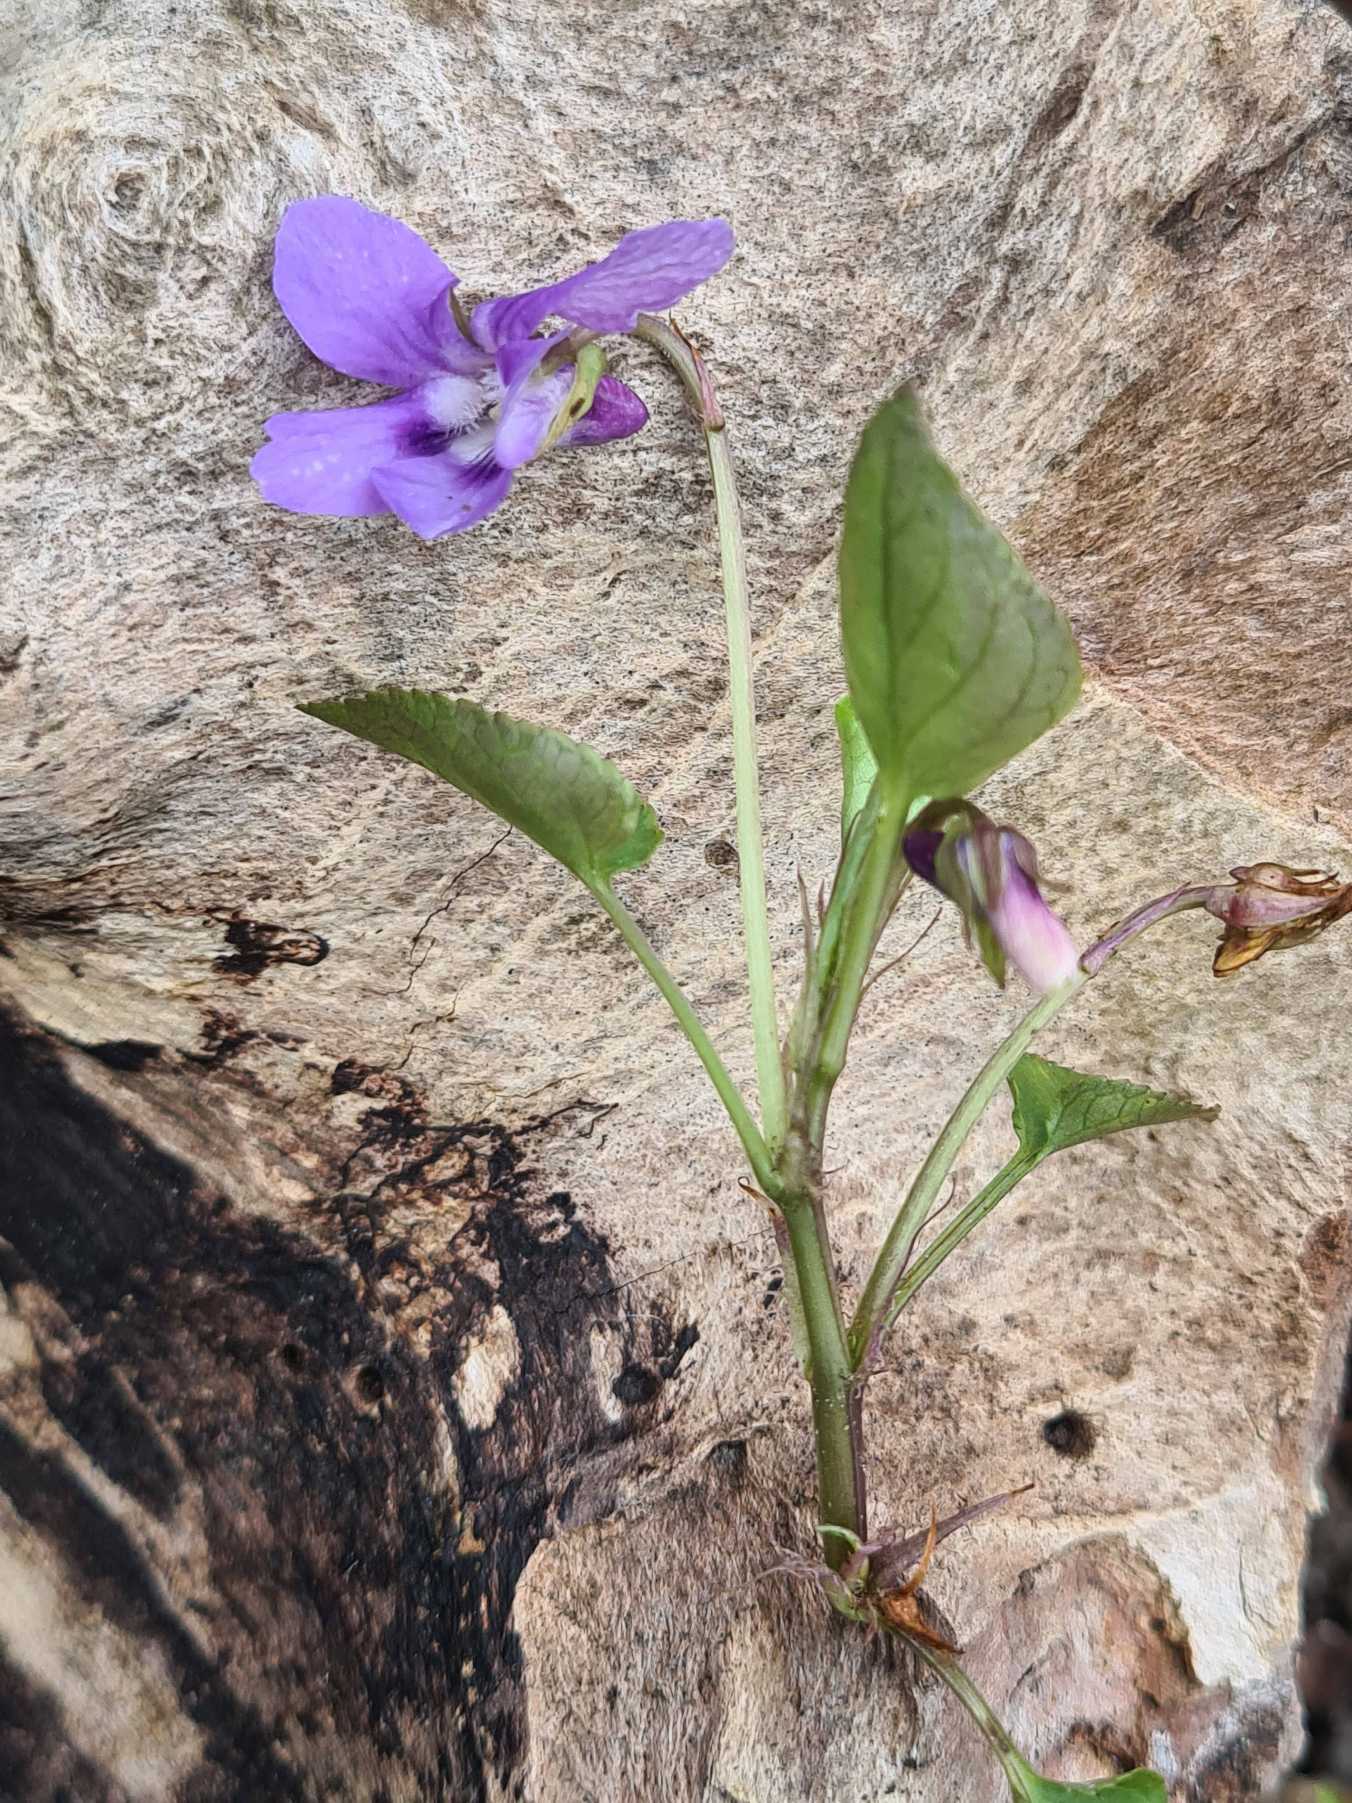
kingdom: Plantae
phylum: Tracheophyta
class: Magnoliopsida
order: Malpighiales
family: Violaceae
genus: Viola
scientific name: Viola reichenbachiana
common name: Skov-viol
